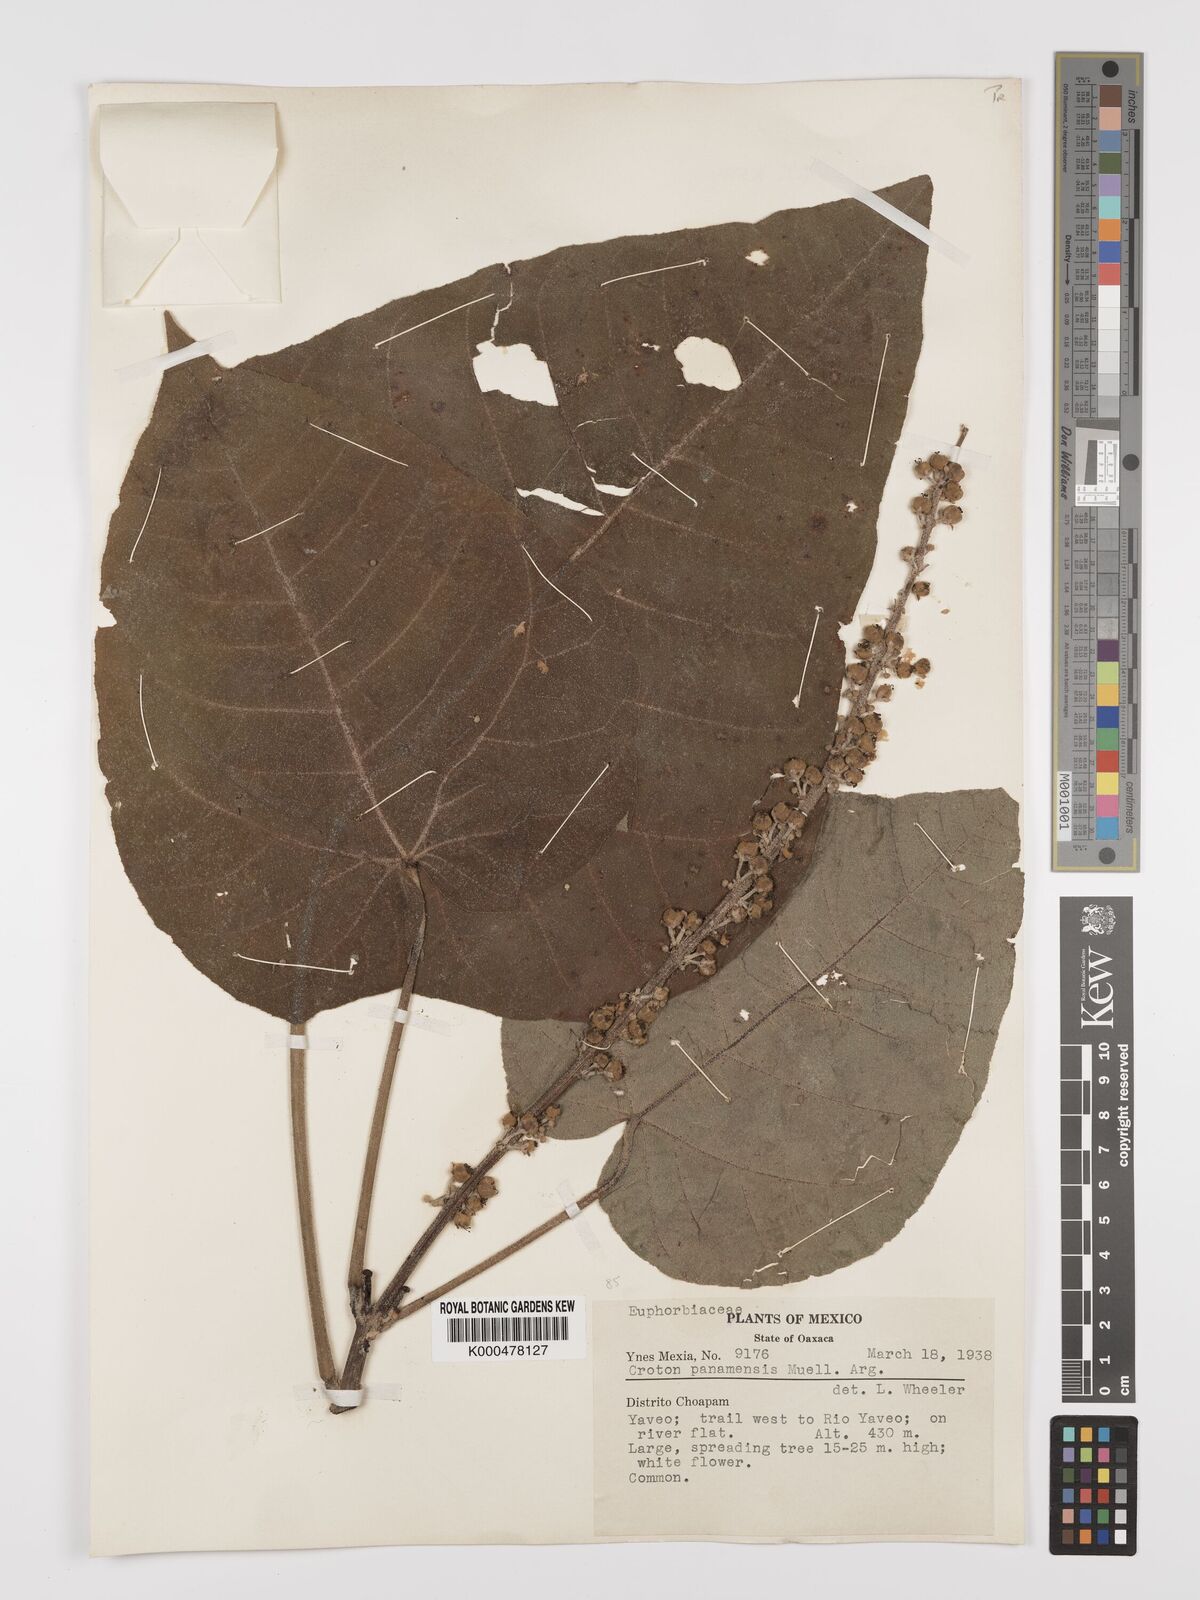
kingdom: Plantae
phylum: Tracheophyta
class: Magnoliopsida
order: Malpighiales
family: Euphorbiaceae
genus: Croton
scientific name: Croton
